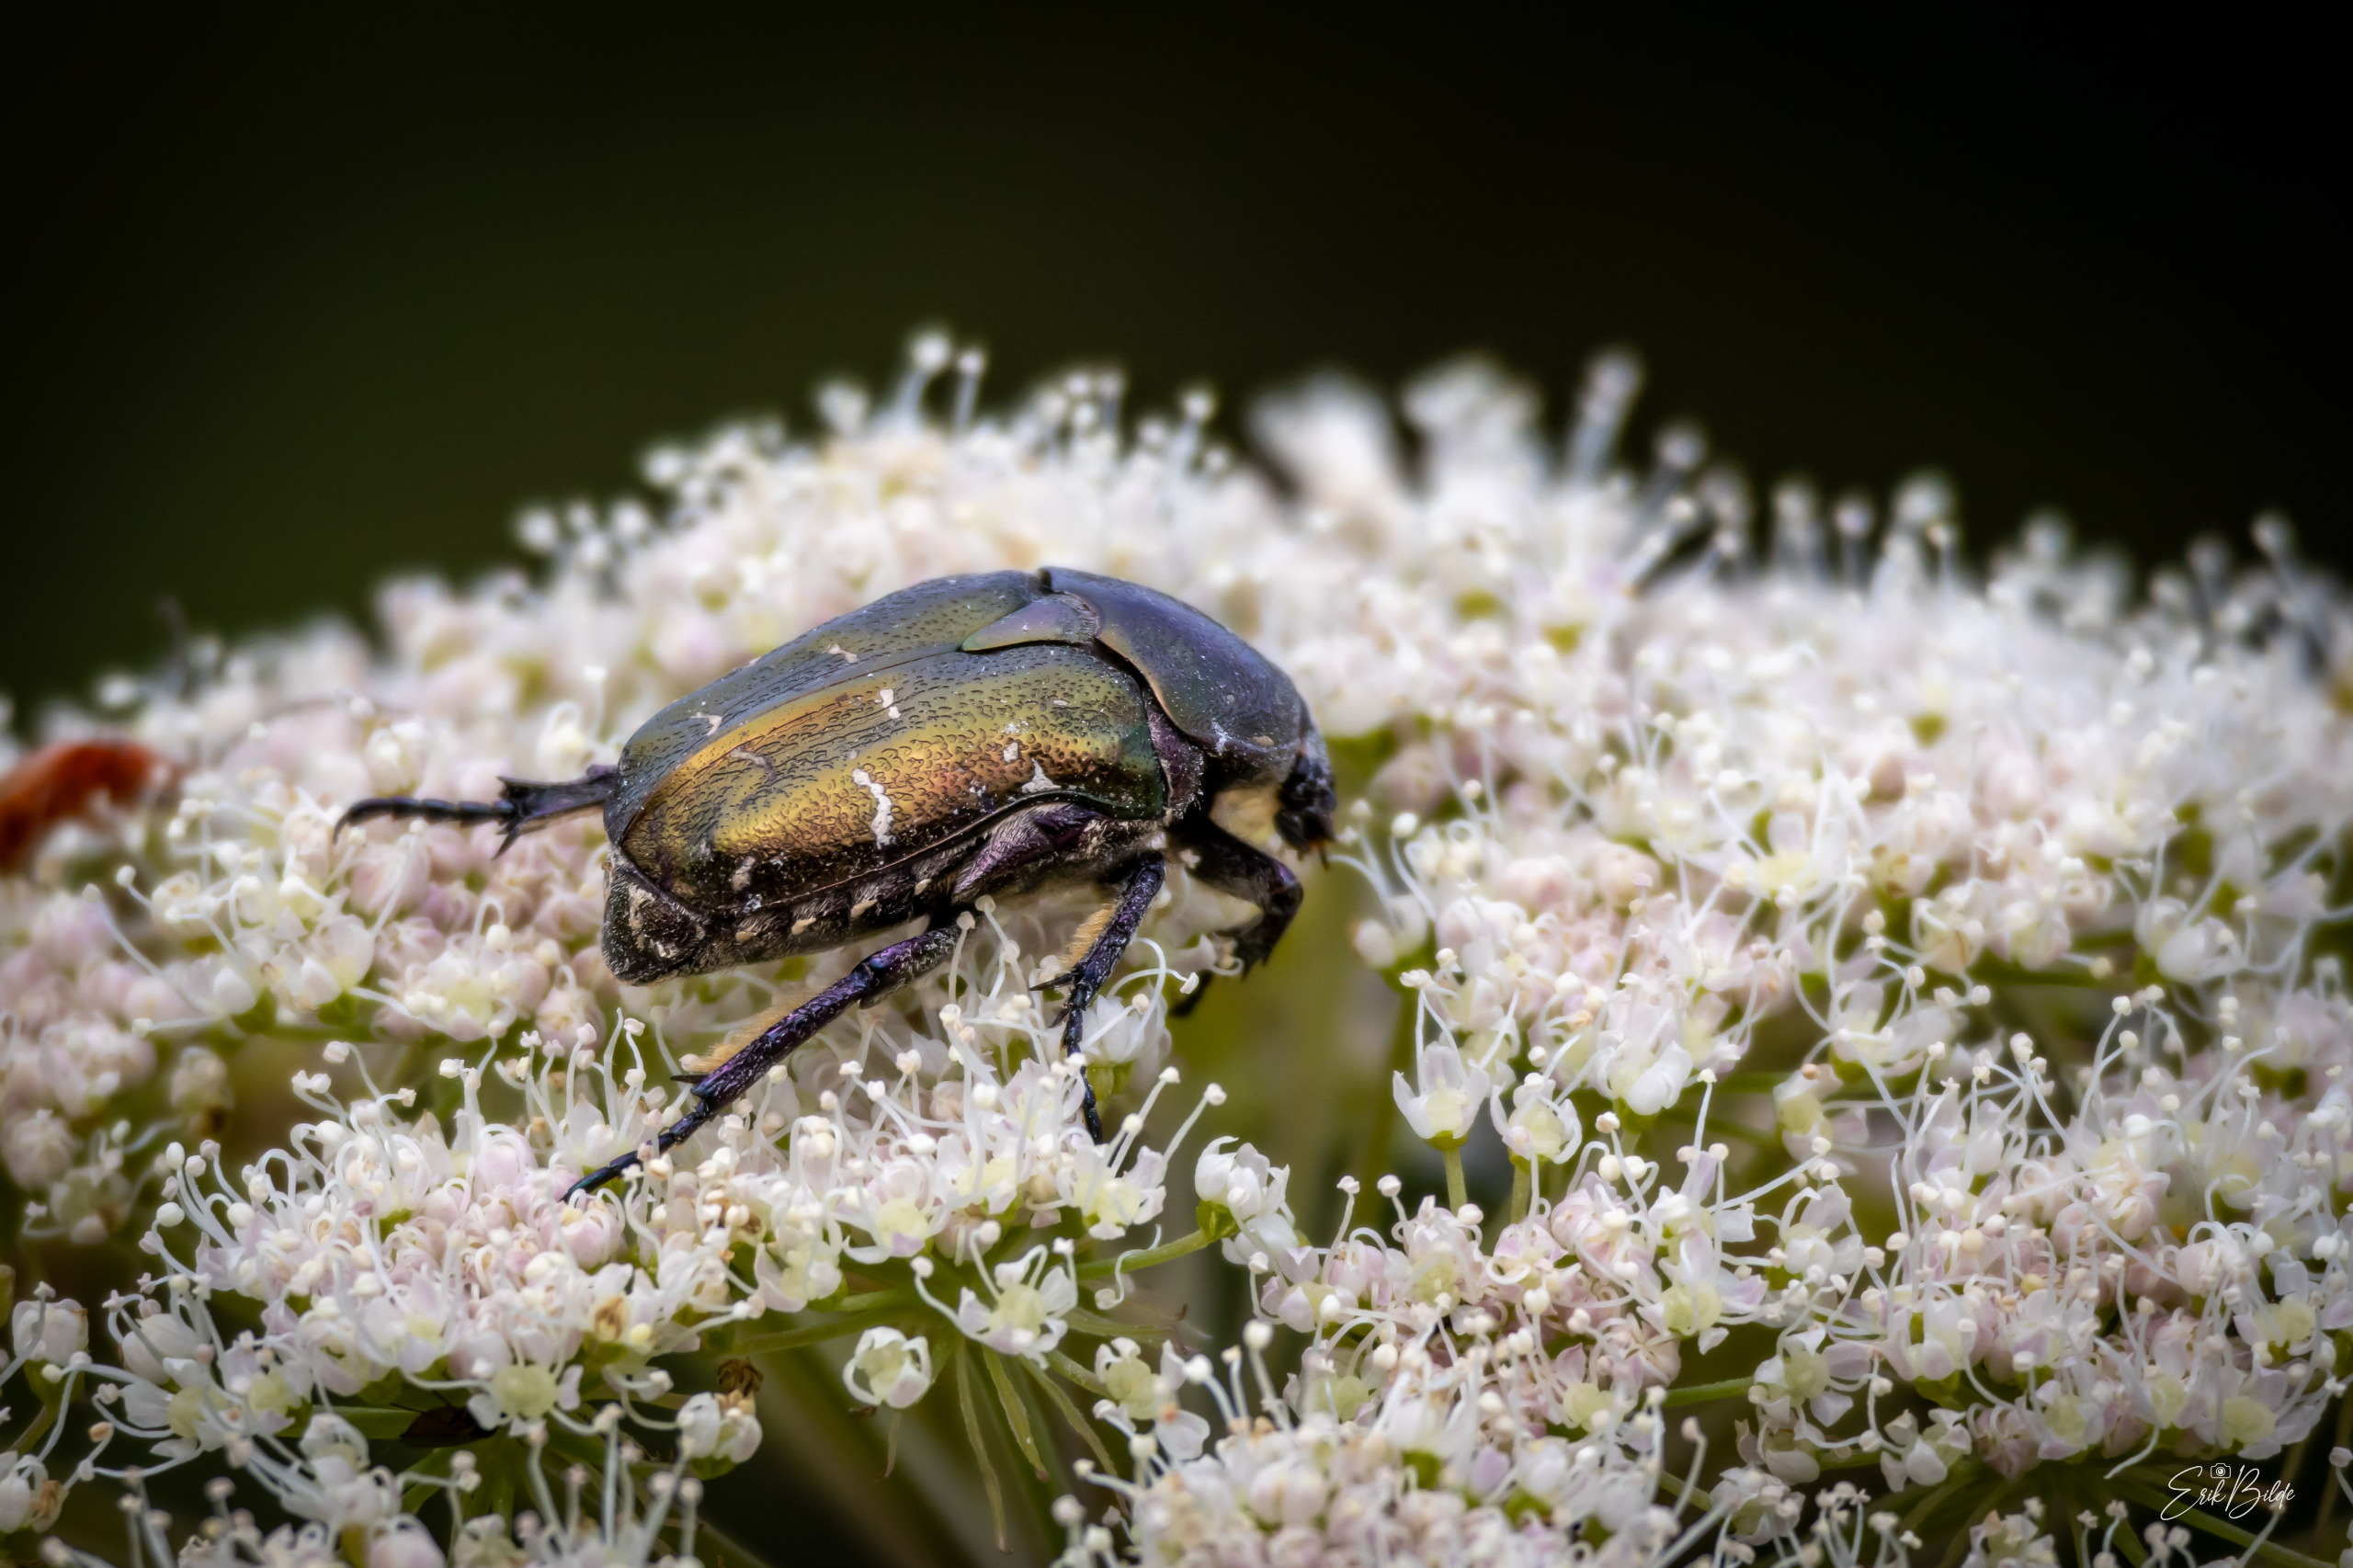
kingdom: Animalia
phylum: Arthropoda
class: Insecta
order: Coleoptera
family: Scarabaeidae
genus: Protaetia
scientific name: Protaetia cuprea
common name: Kobberguldbasse
